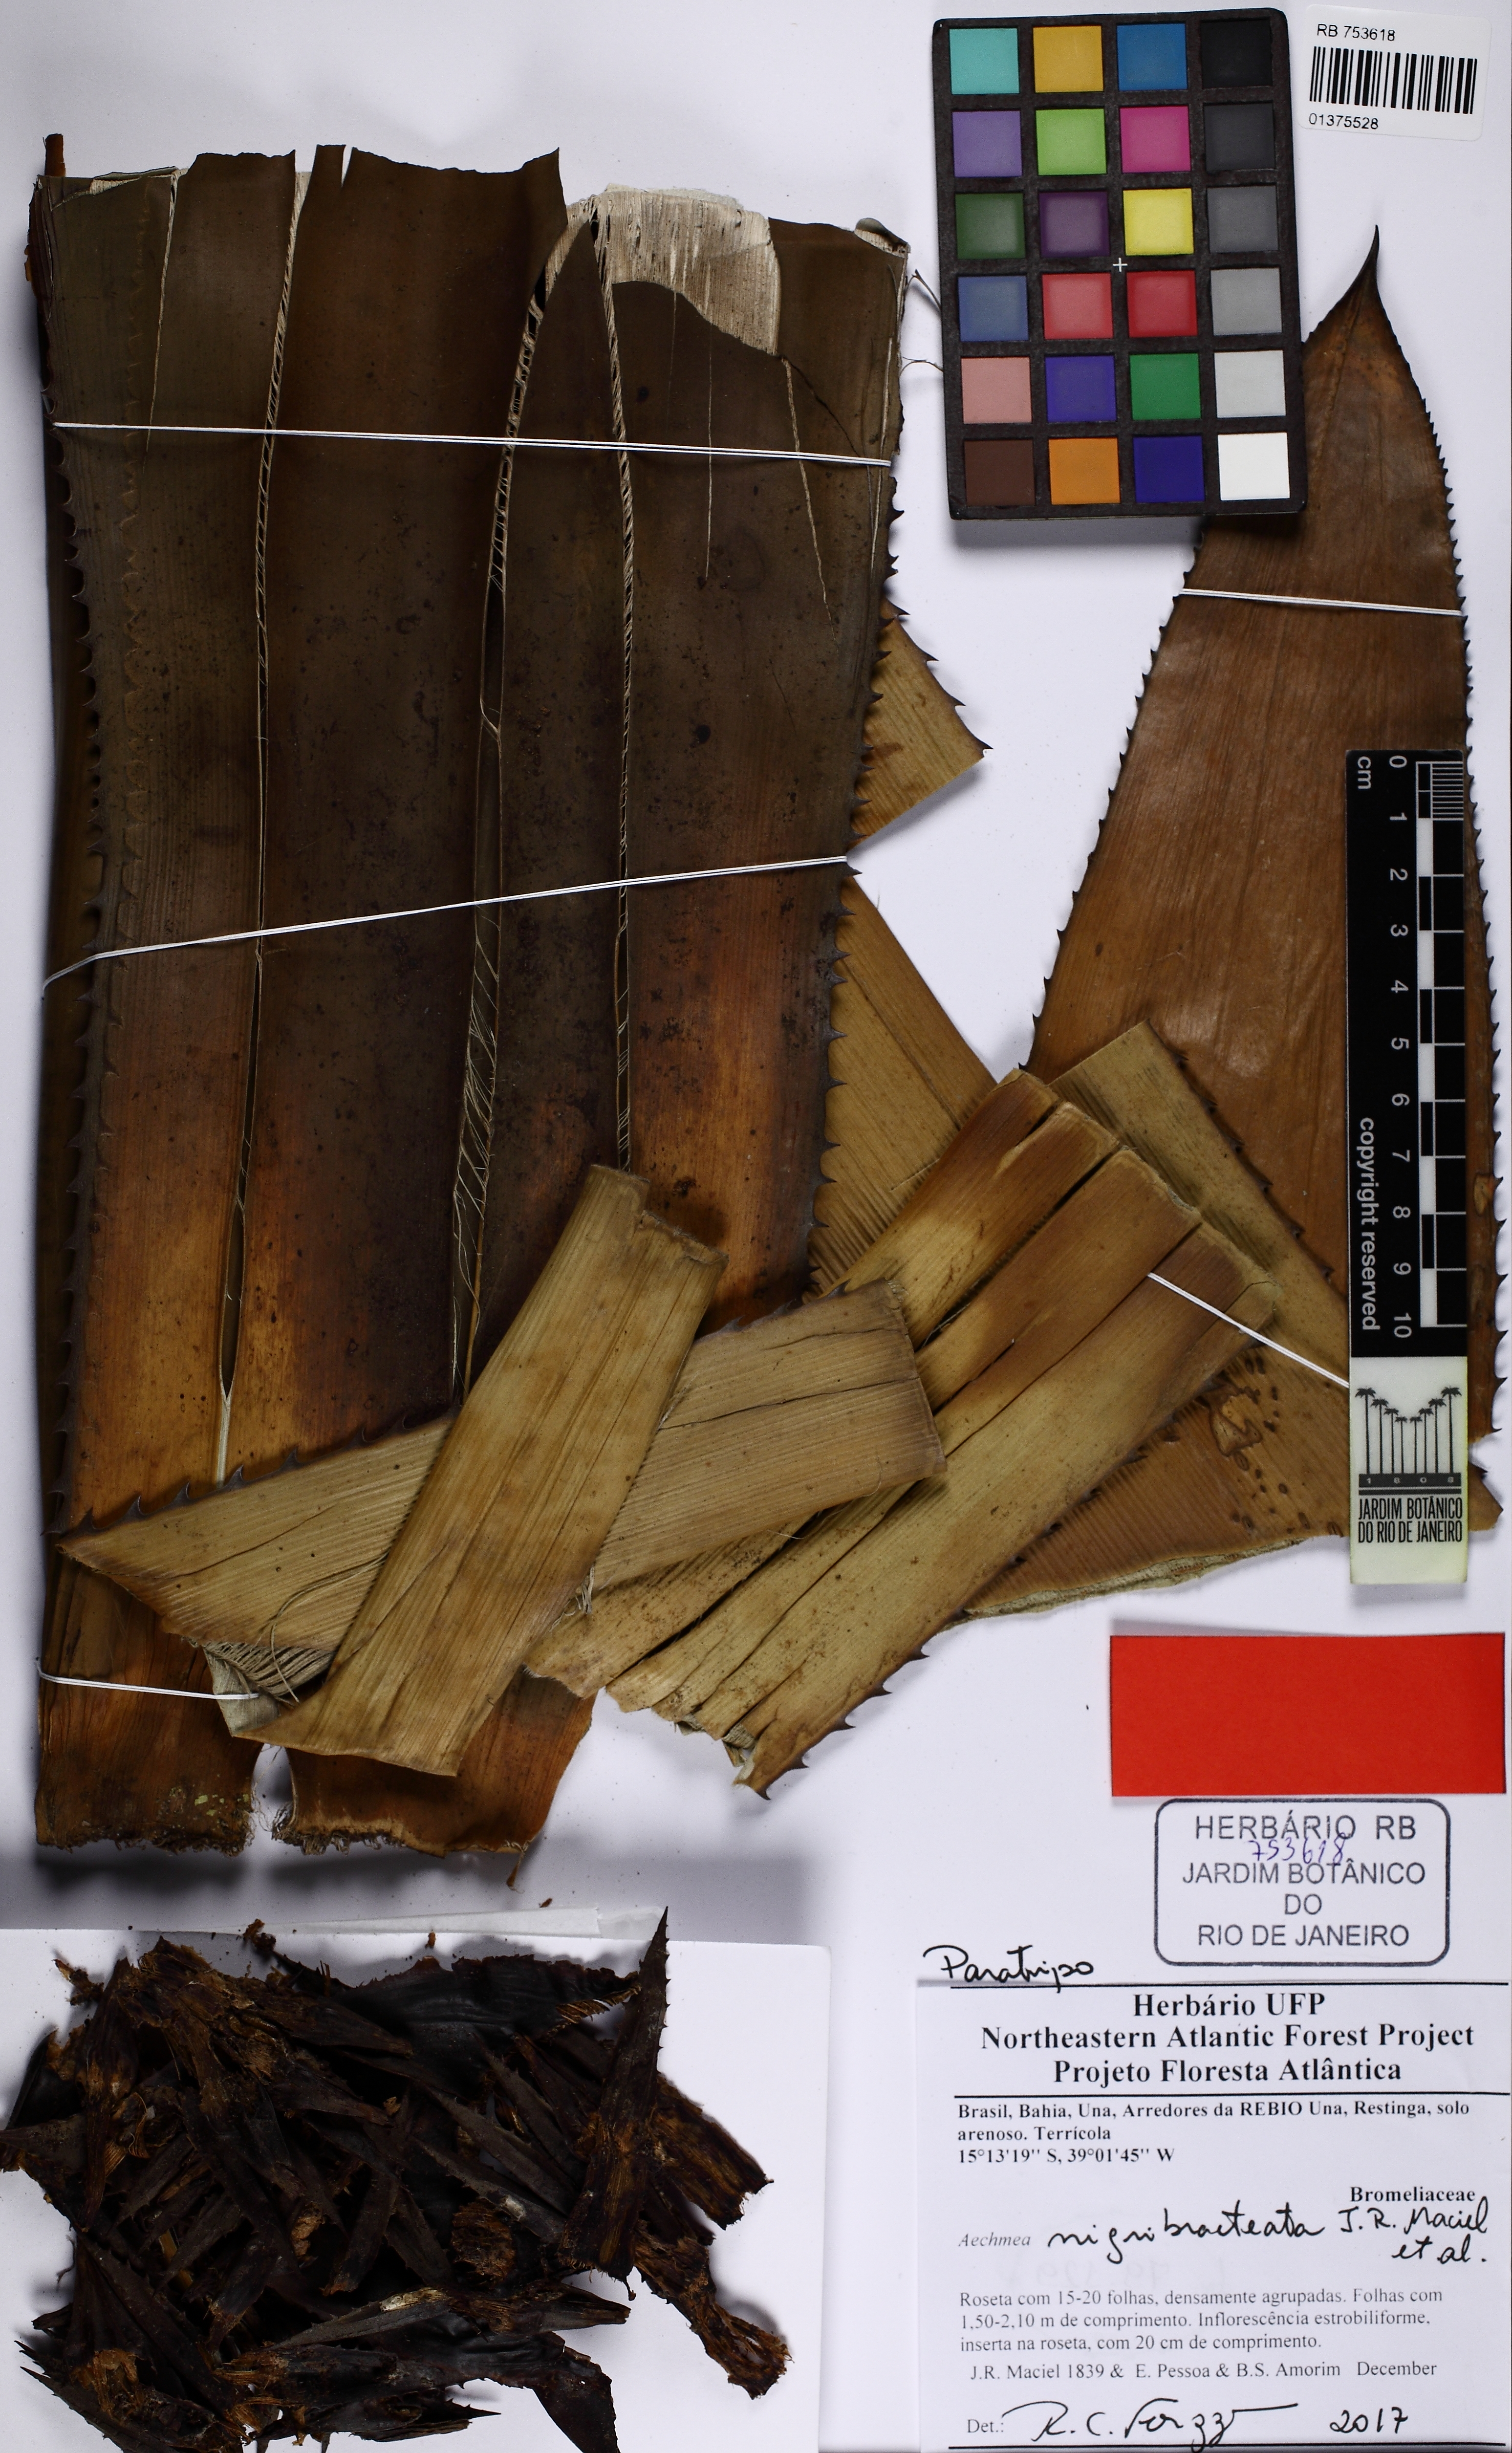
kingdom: Plantae
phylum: Tracheophyta
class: Liliopsida
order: Poales
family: Bromeliaceae
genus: Karawata
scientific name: Karawata nigribracteata
